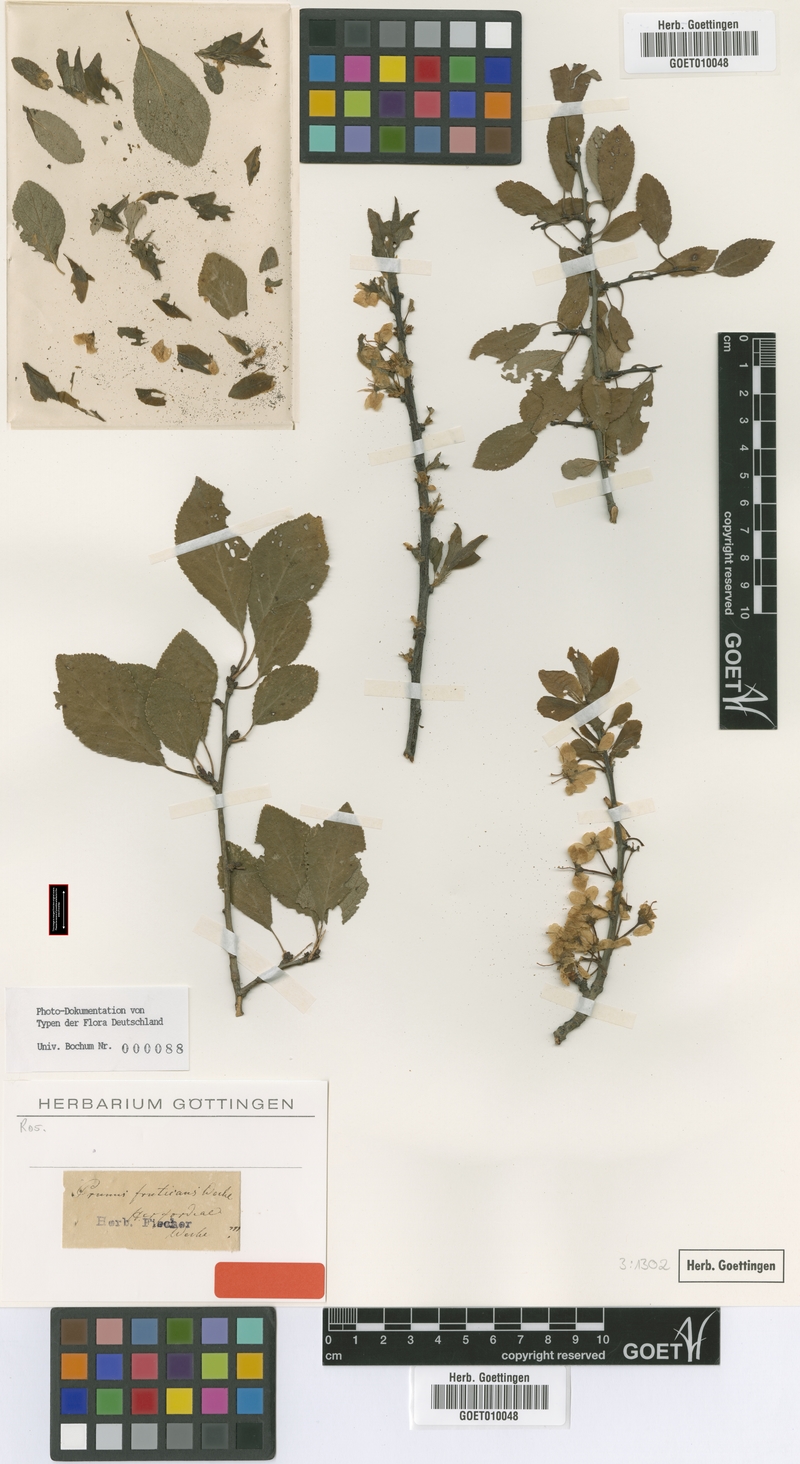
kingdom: Plantae
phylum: Tracheophyta
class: Magnoliopsida
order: Rosales
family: Rosaceae
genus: Prunus
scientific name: Prunus fruticans
